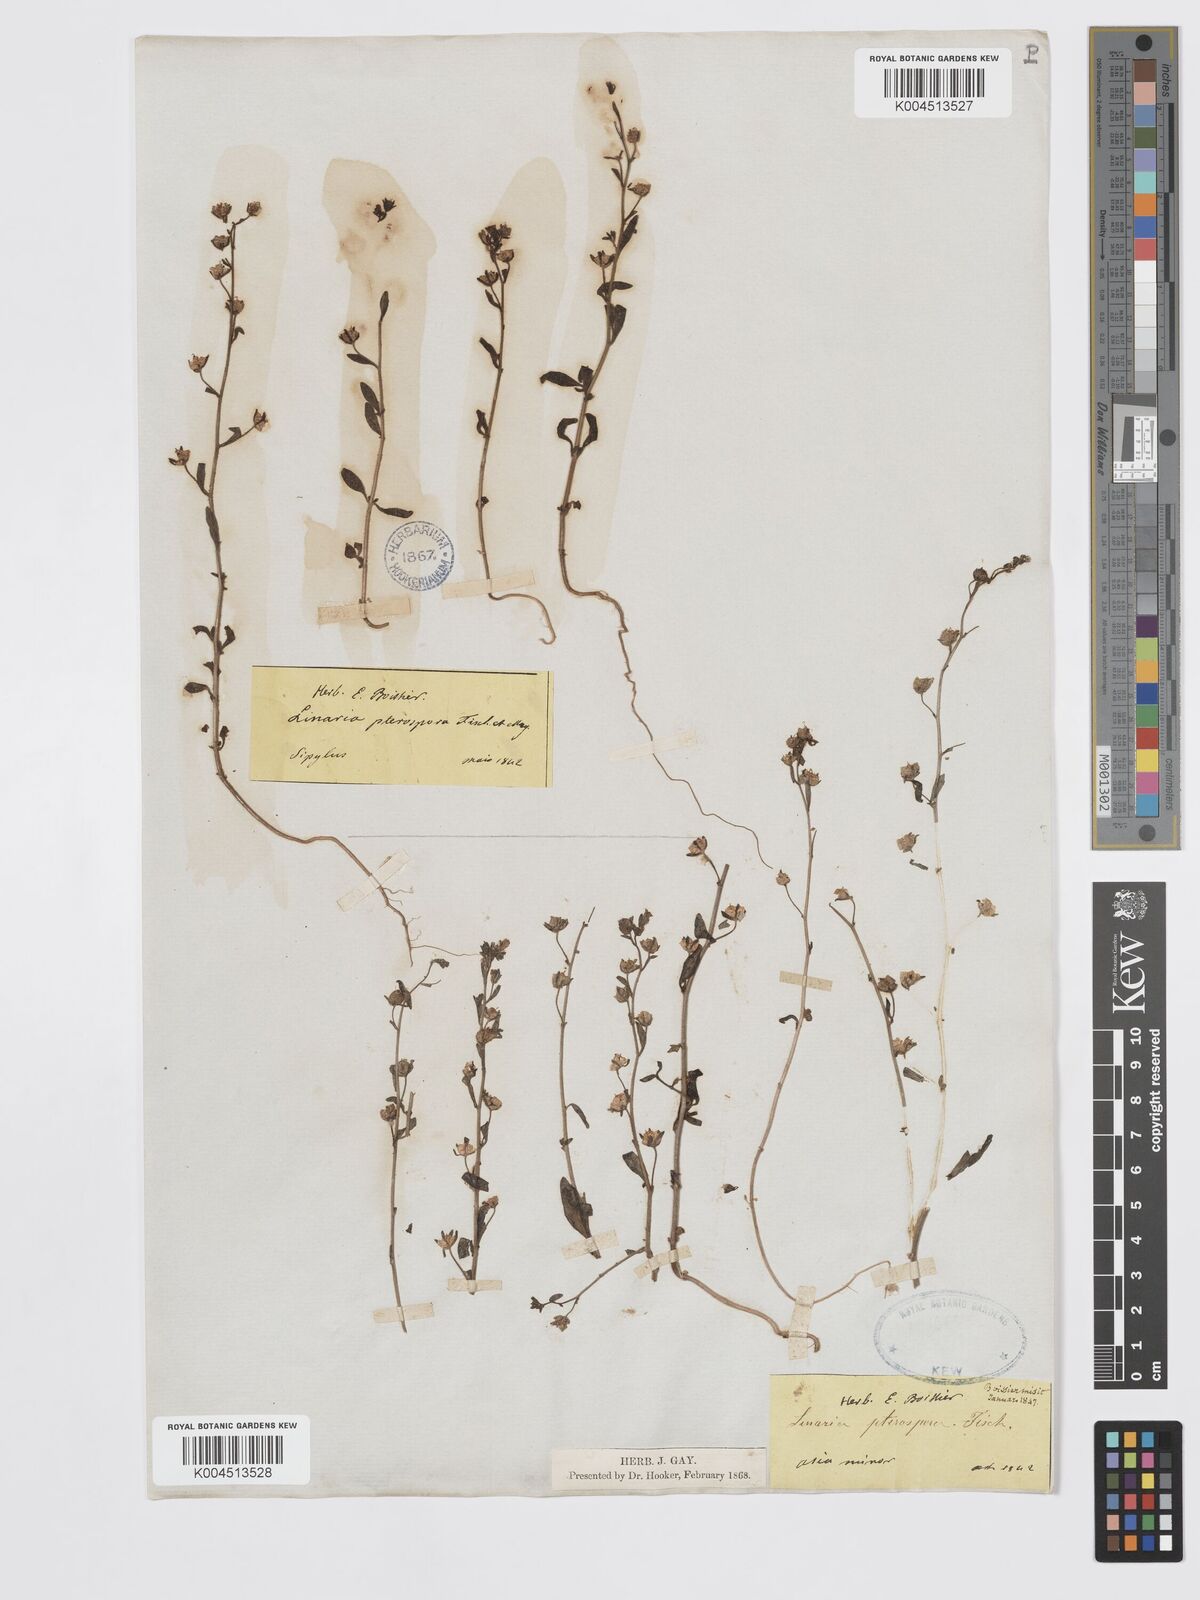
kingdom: Plantae
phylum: Tracheophyta
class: Magnoliopsida
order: Lamiales
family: Plantaginaceae
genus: Chaenorhinum
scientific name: Chaenorhinum litorale
